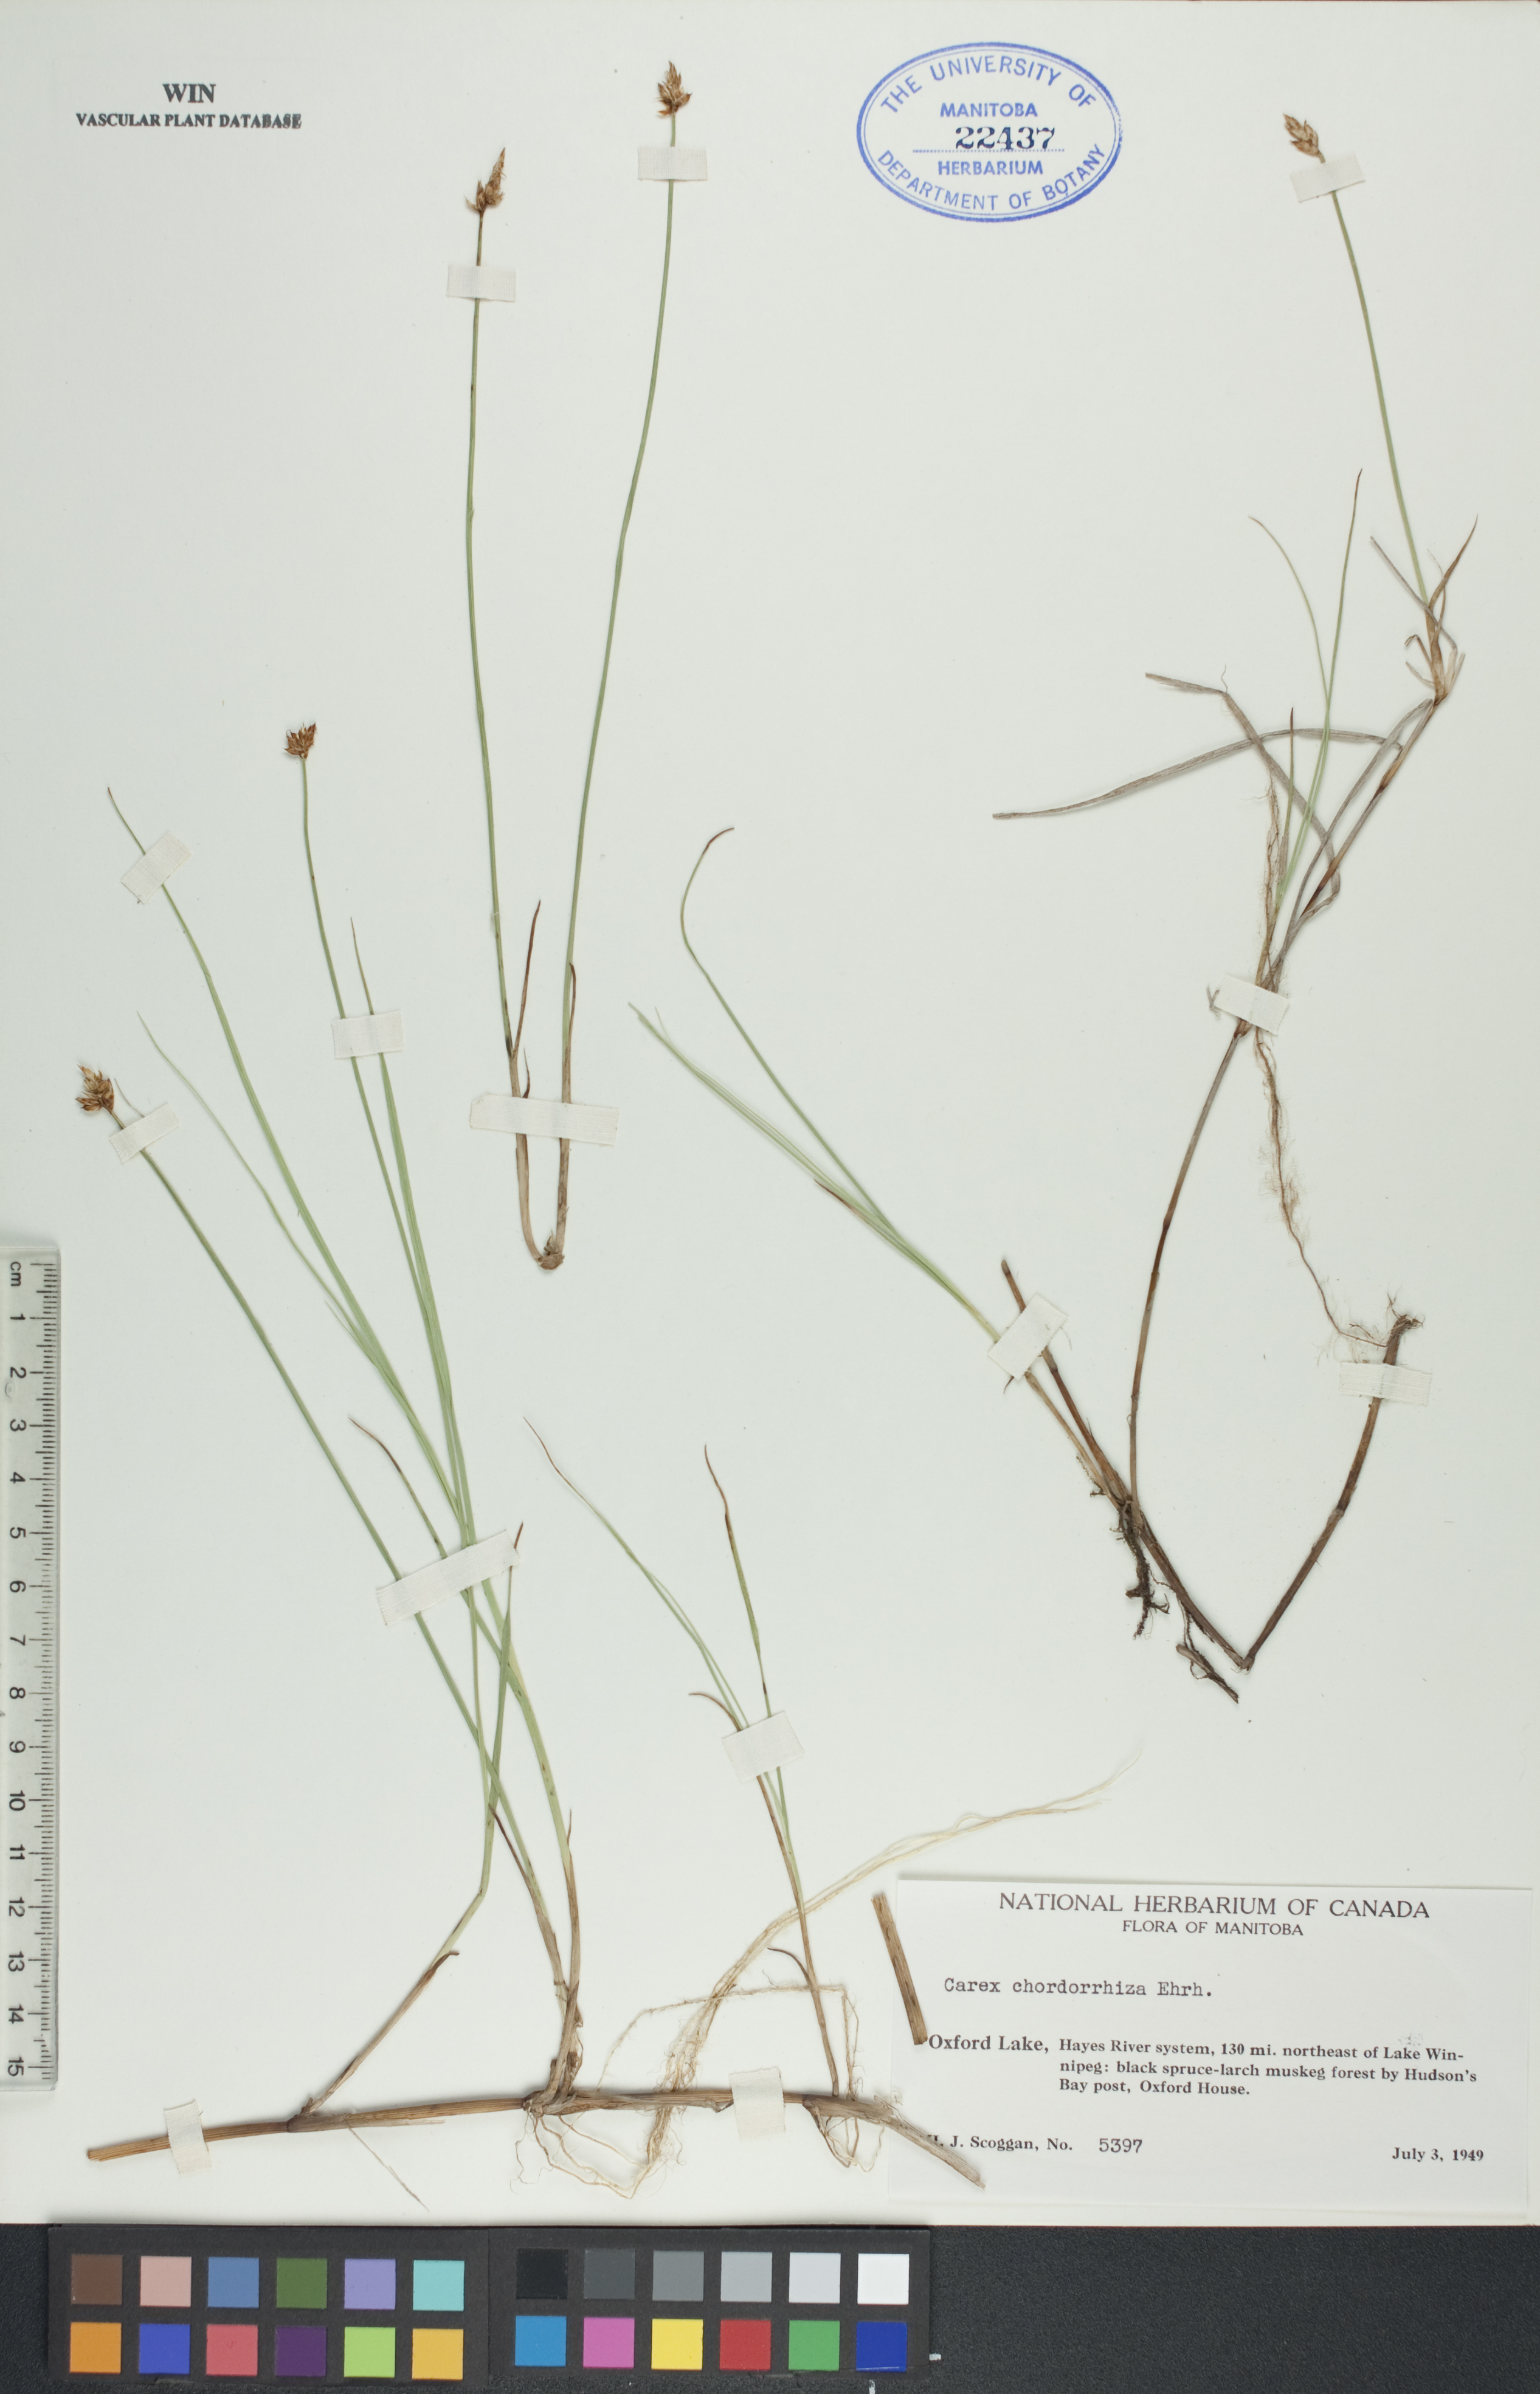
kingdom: Plantae
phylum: Tracheophyta
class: Liliopsida
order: Poales
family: Cyperaceae
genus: Carex
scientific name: Carex chordorrhiza
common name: String sedge
